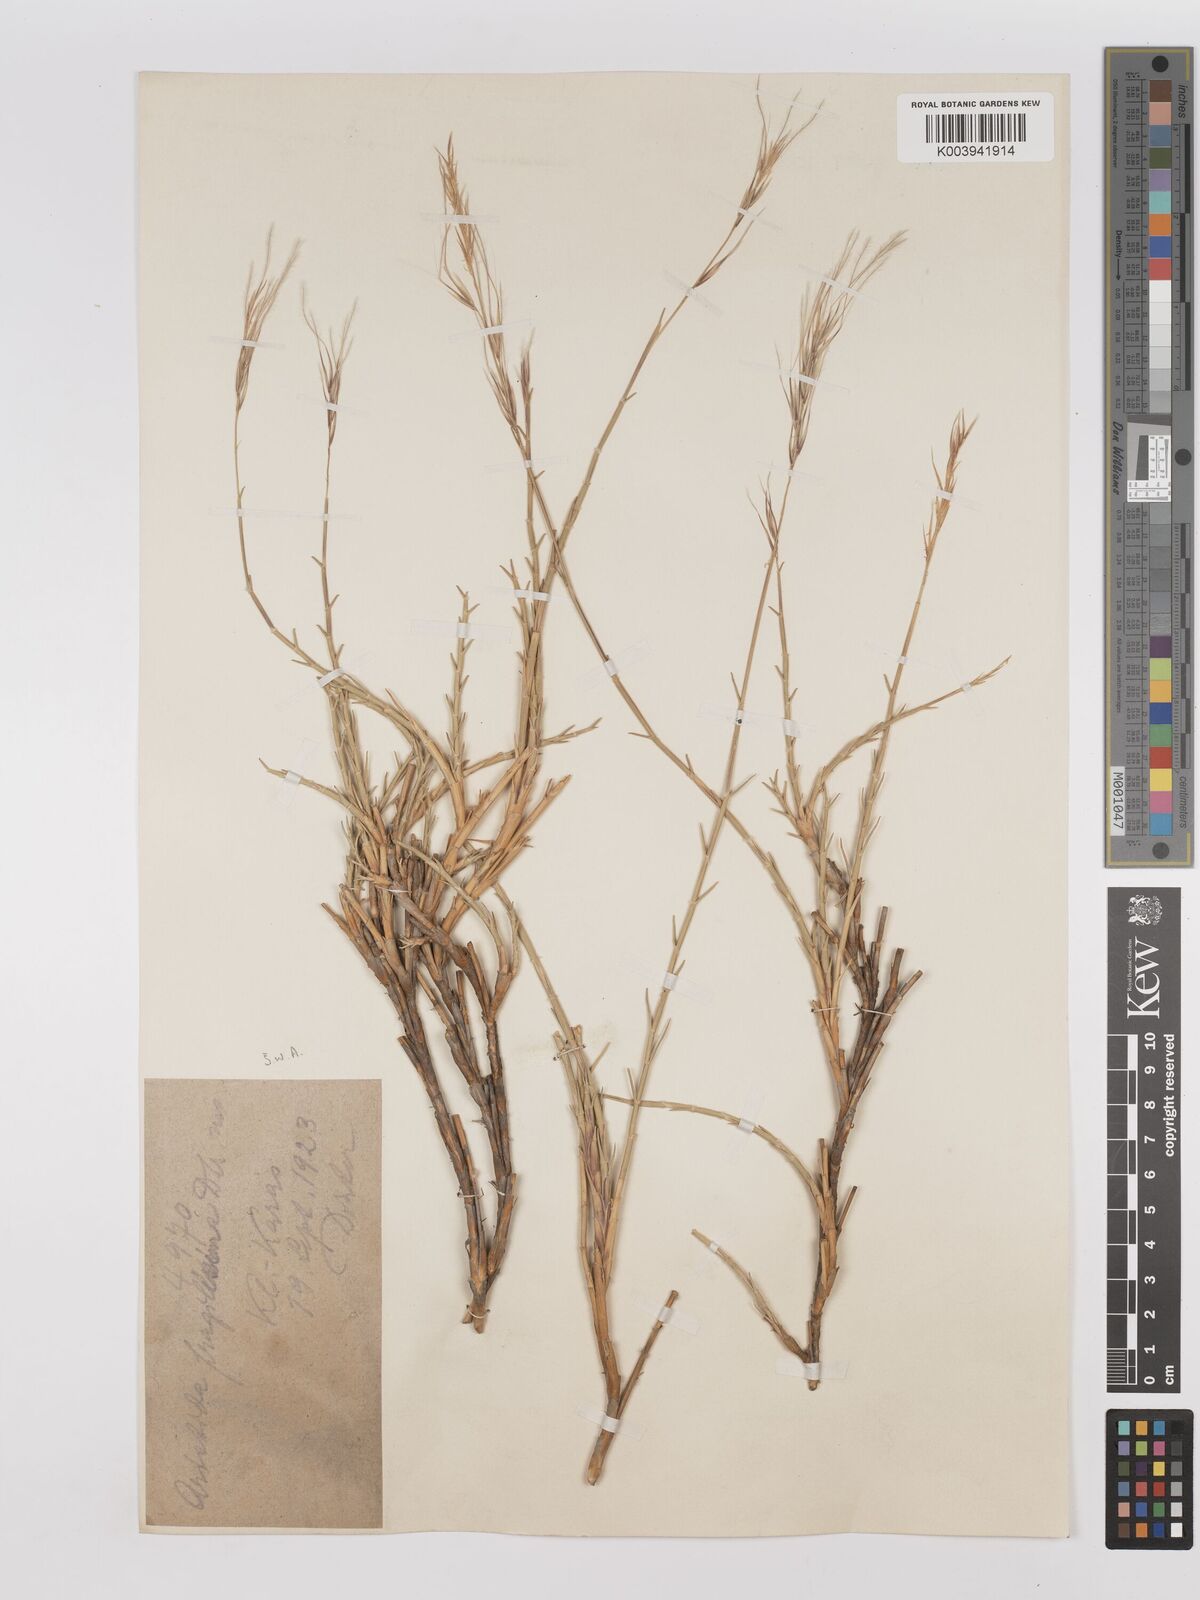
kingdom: Plantae
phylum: Tracheophyta
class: Liliopsida
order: Poales
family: Poaceae
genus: Stipagrostis
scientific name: Stipagrostis brevifolia
